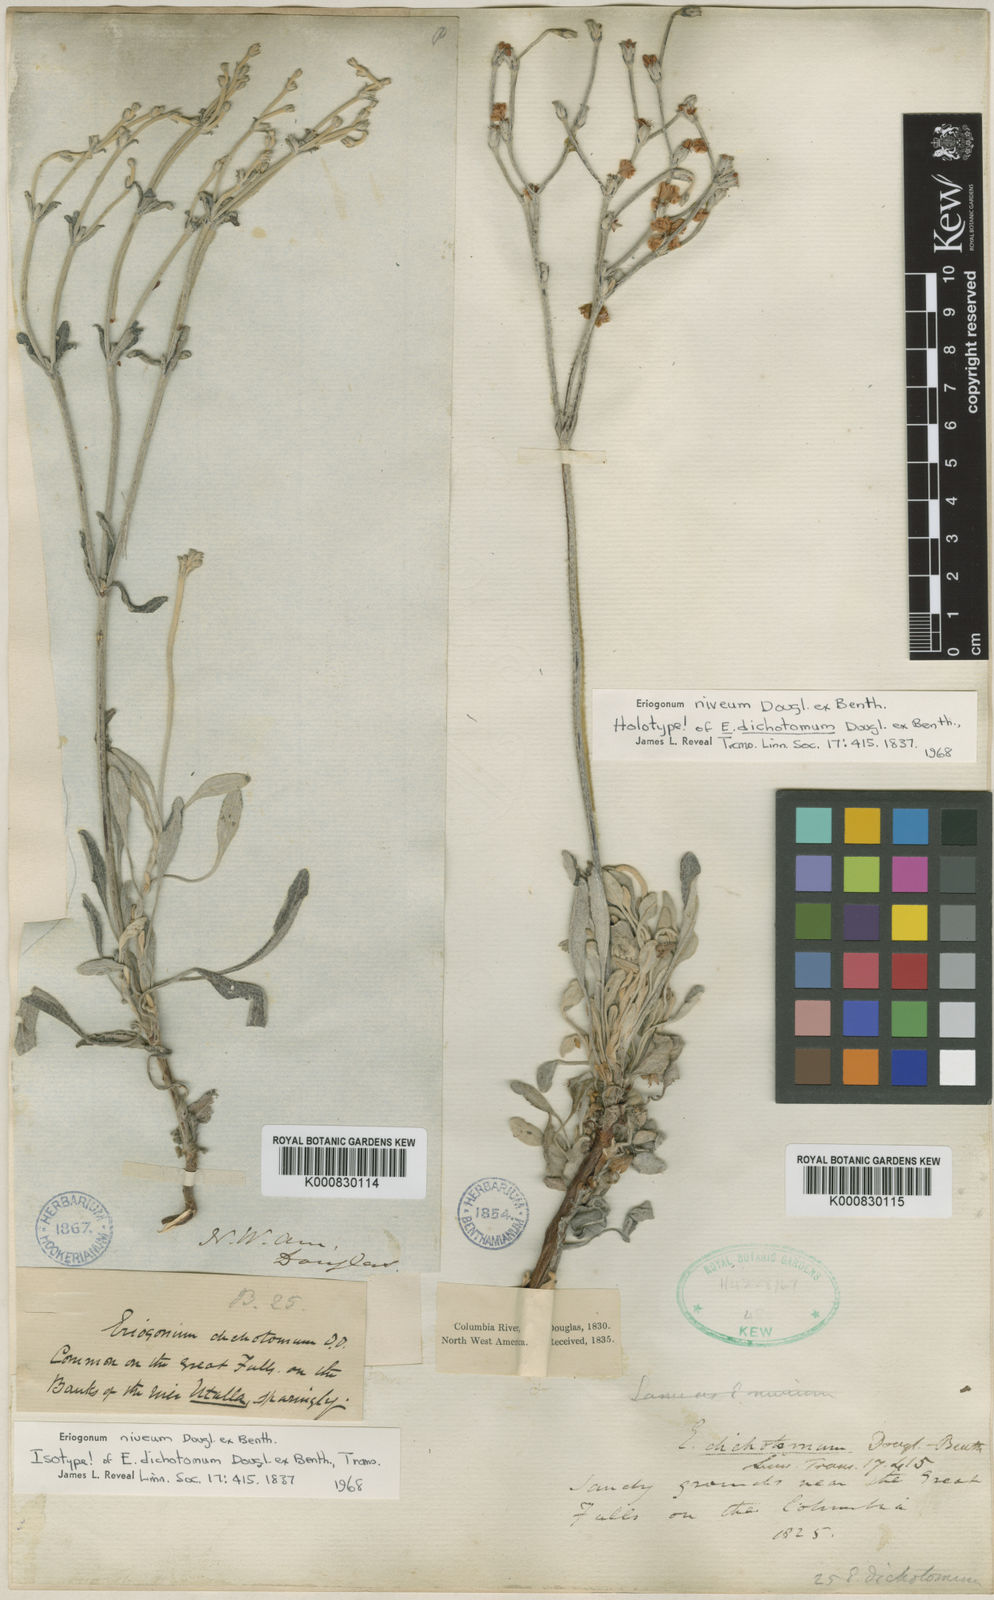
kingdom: Plantae
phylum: Tracheophyta
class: Magnoliopsida
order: Caryophyllales
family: Polygonaceae
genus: Eriogonum
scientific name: Eriogonum niveum
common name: Snow wild buckwheat
